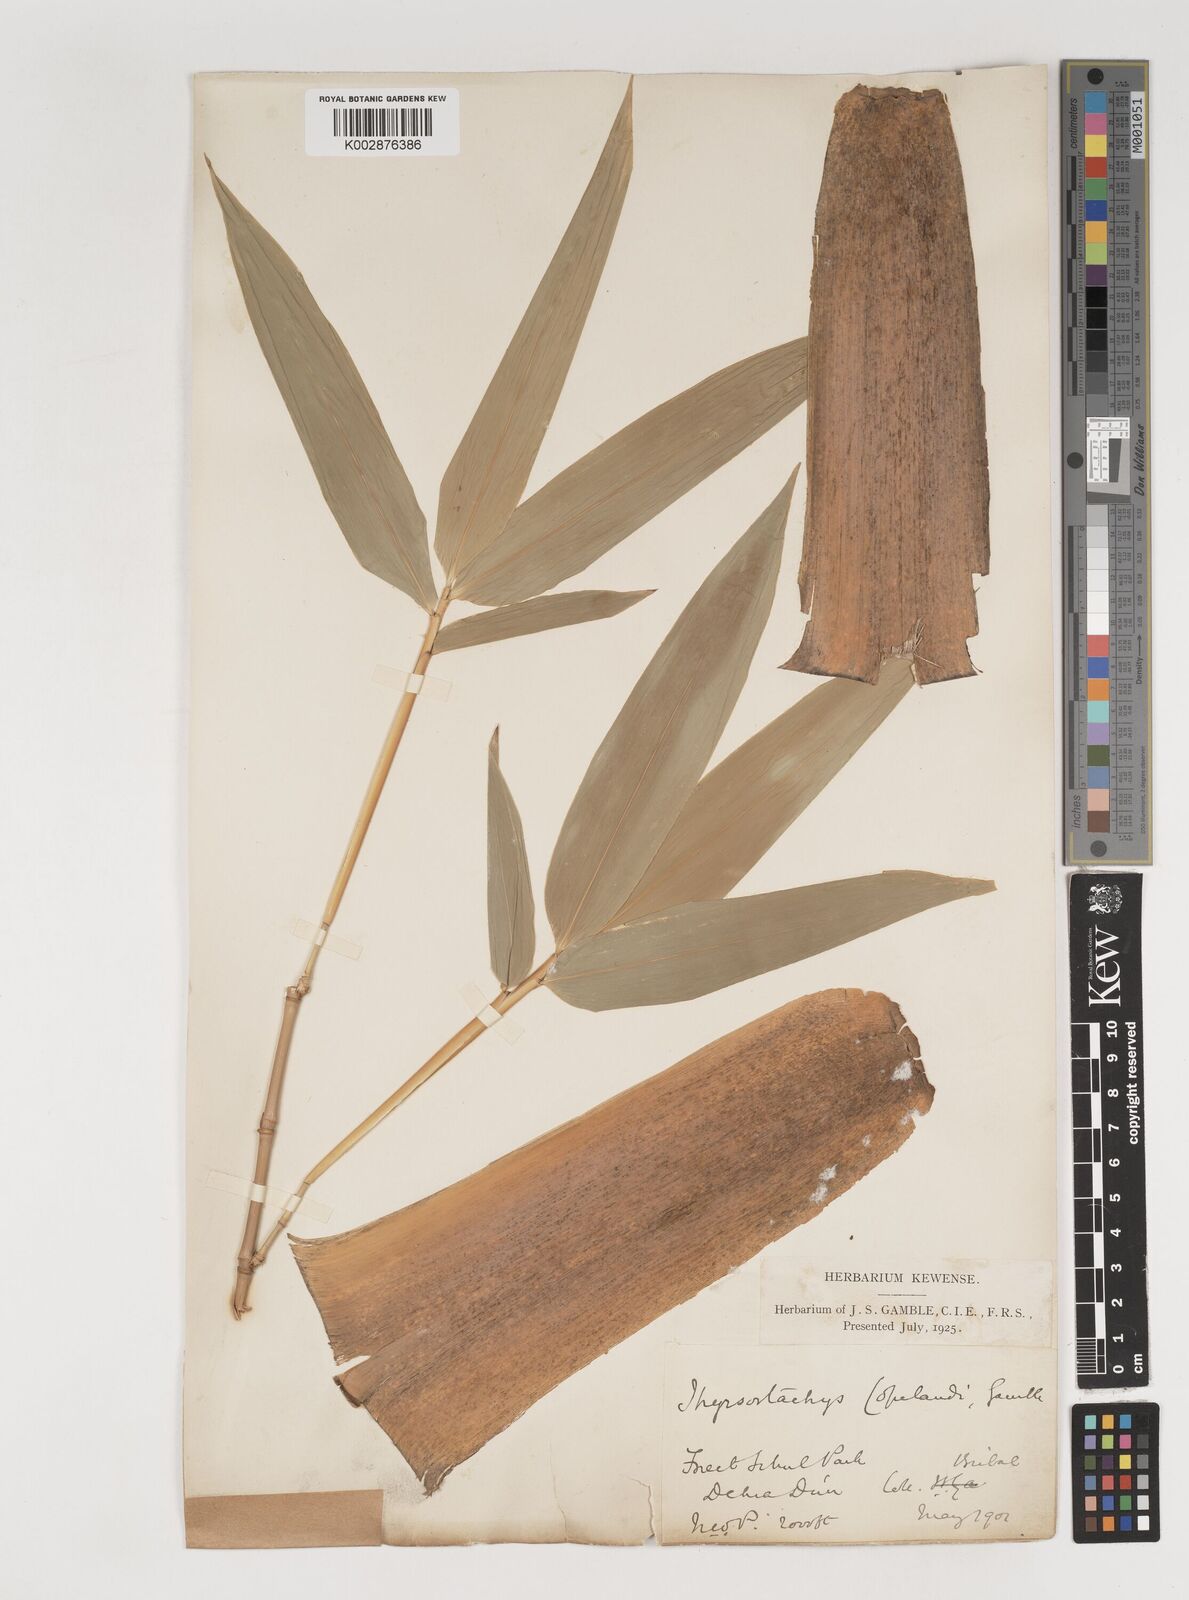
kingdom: Plantae
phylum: Tracheophyta
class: Liliopsida
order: Poales
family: Poaceae
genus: Bambusa
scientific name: Bambusa copelandii
